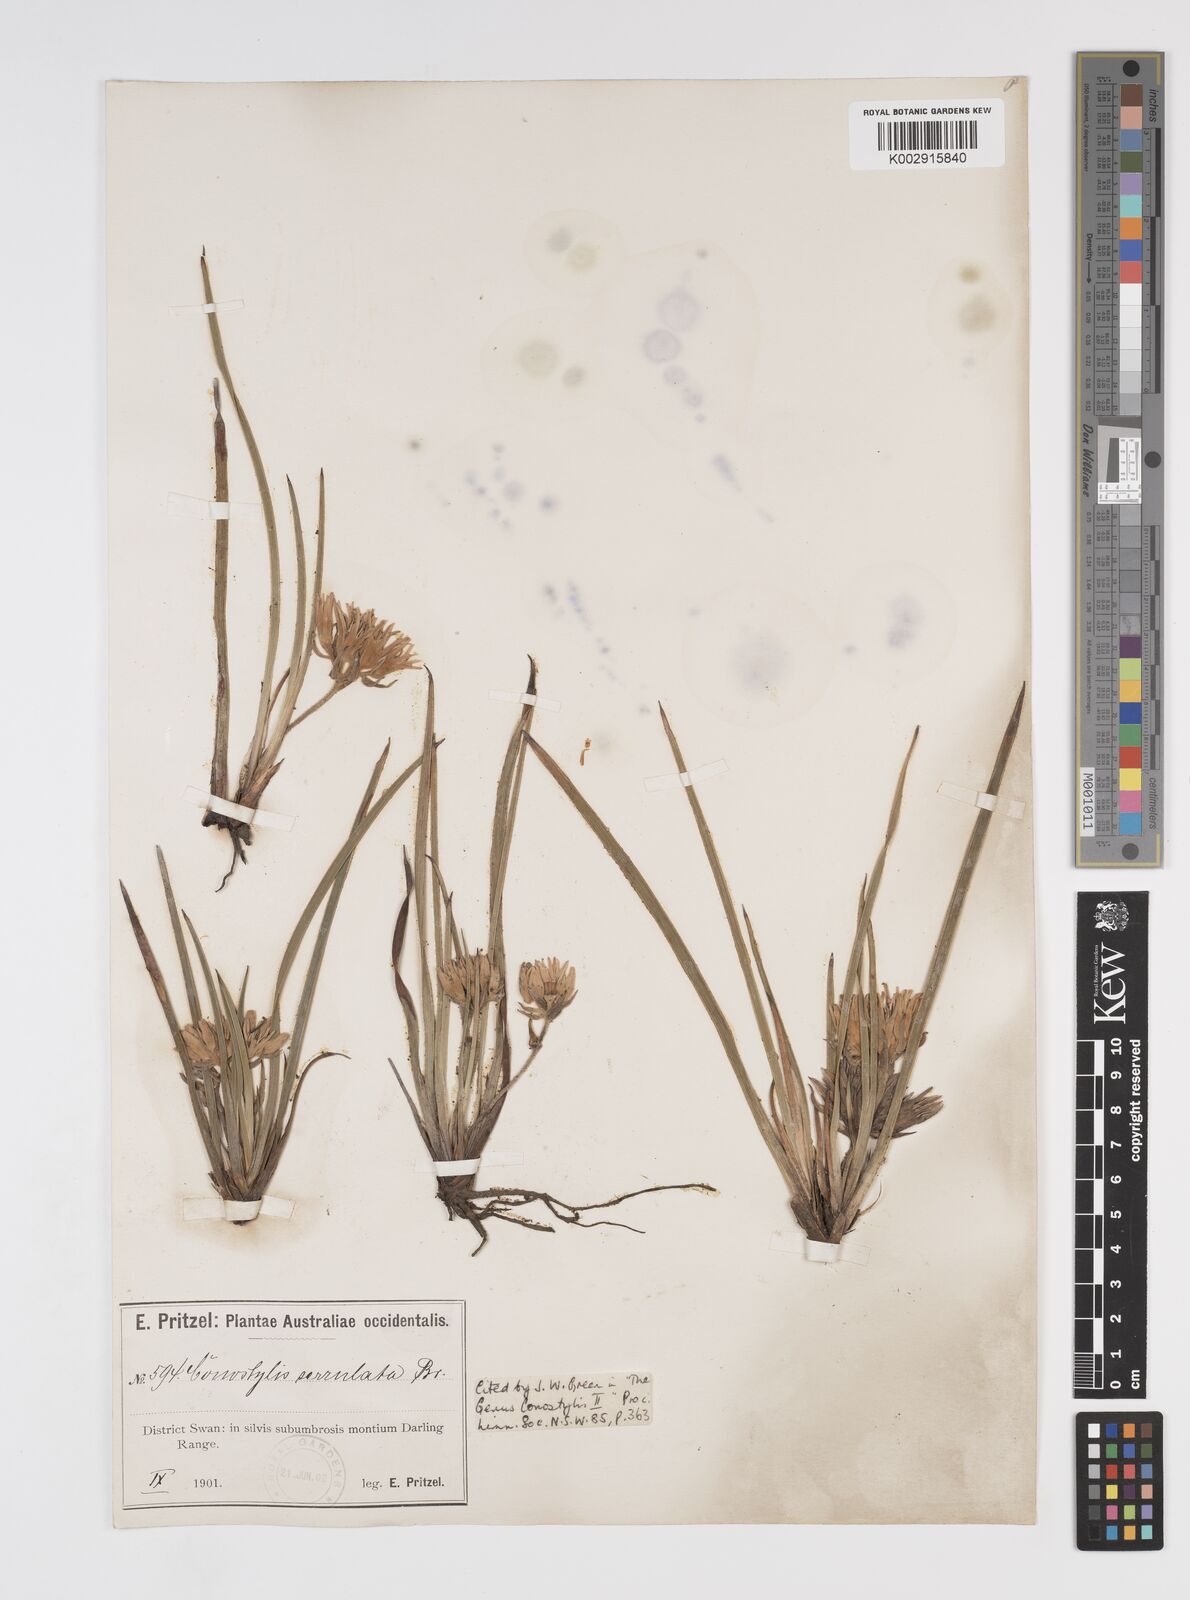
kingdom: Plantae
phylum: Tracheophyta
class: Liliopsida
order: Commelinales
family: Haemodoraceae
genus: Conostylis
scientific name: Conostylis caricina
